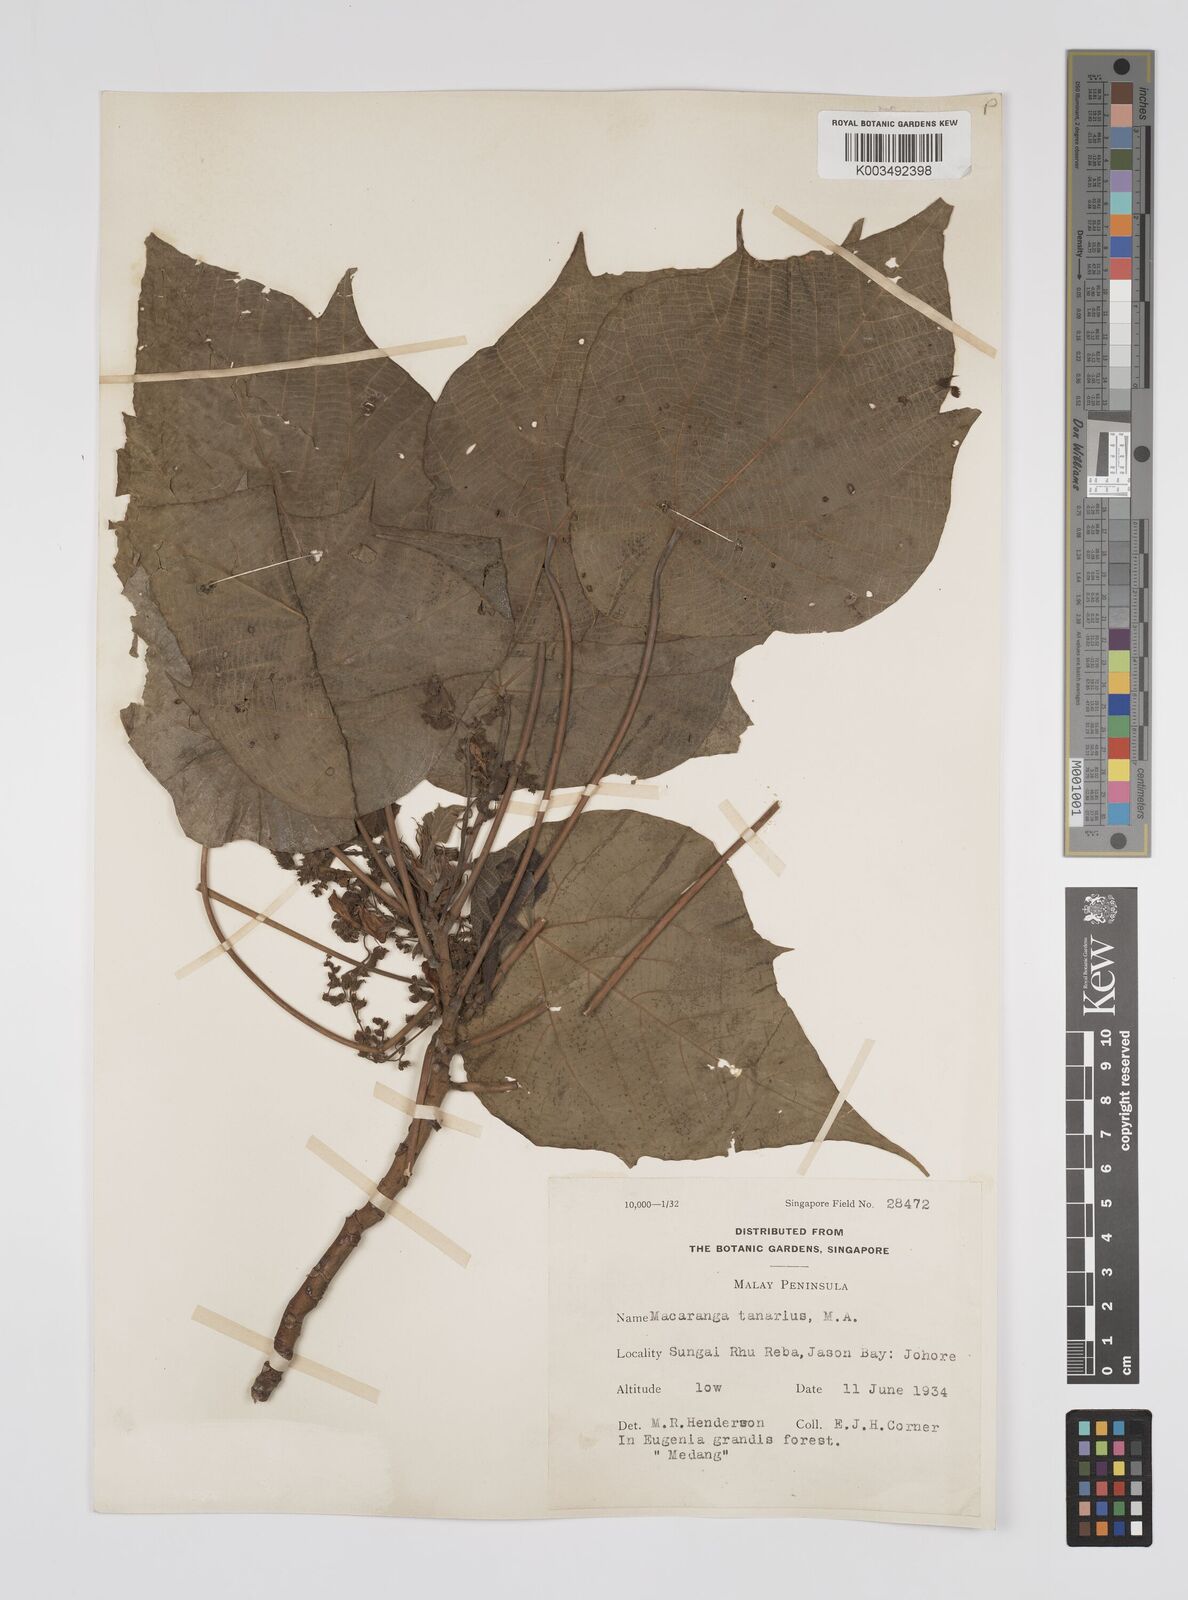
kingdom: Plantae
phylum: Tracheophyta
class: Magnoliopsida
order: Malpighiales
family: Euphorbiaceae
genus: Macaranga
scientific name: Macaranga tanarius
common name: Parasol leaf tree
